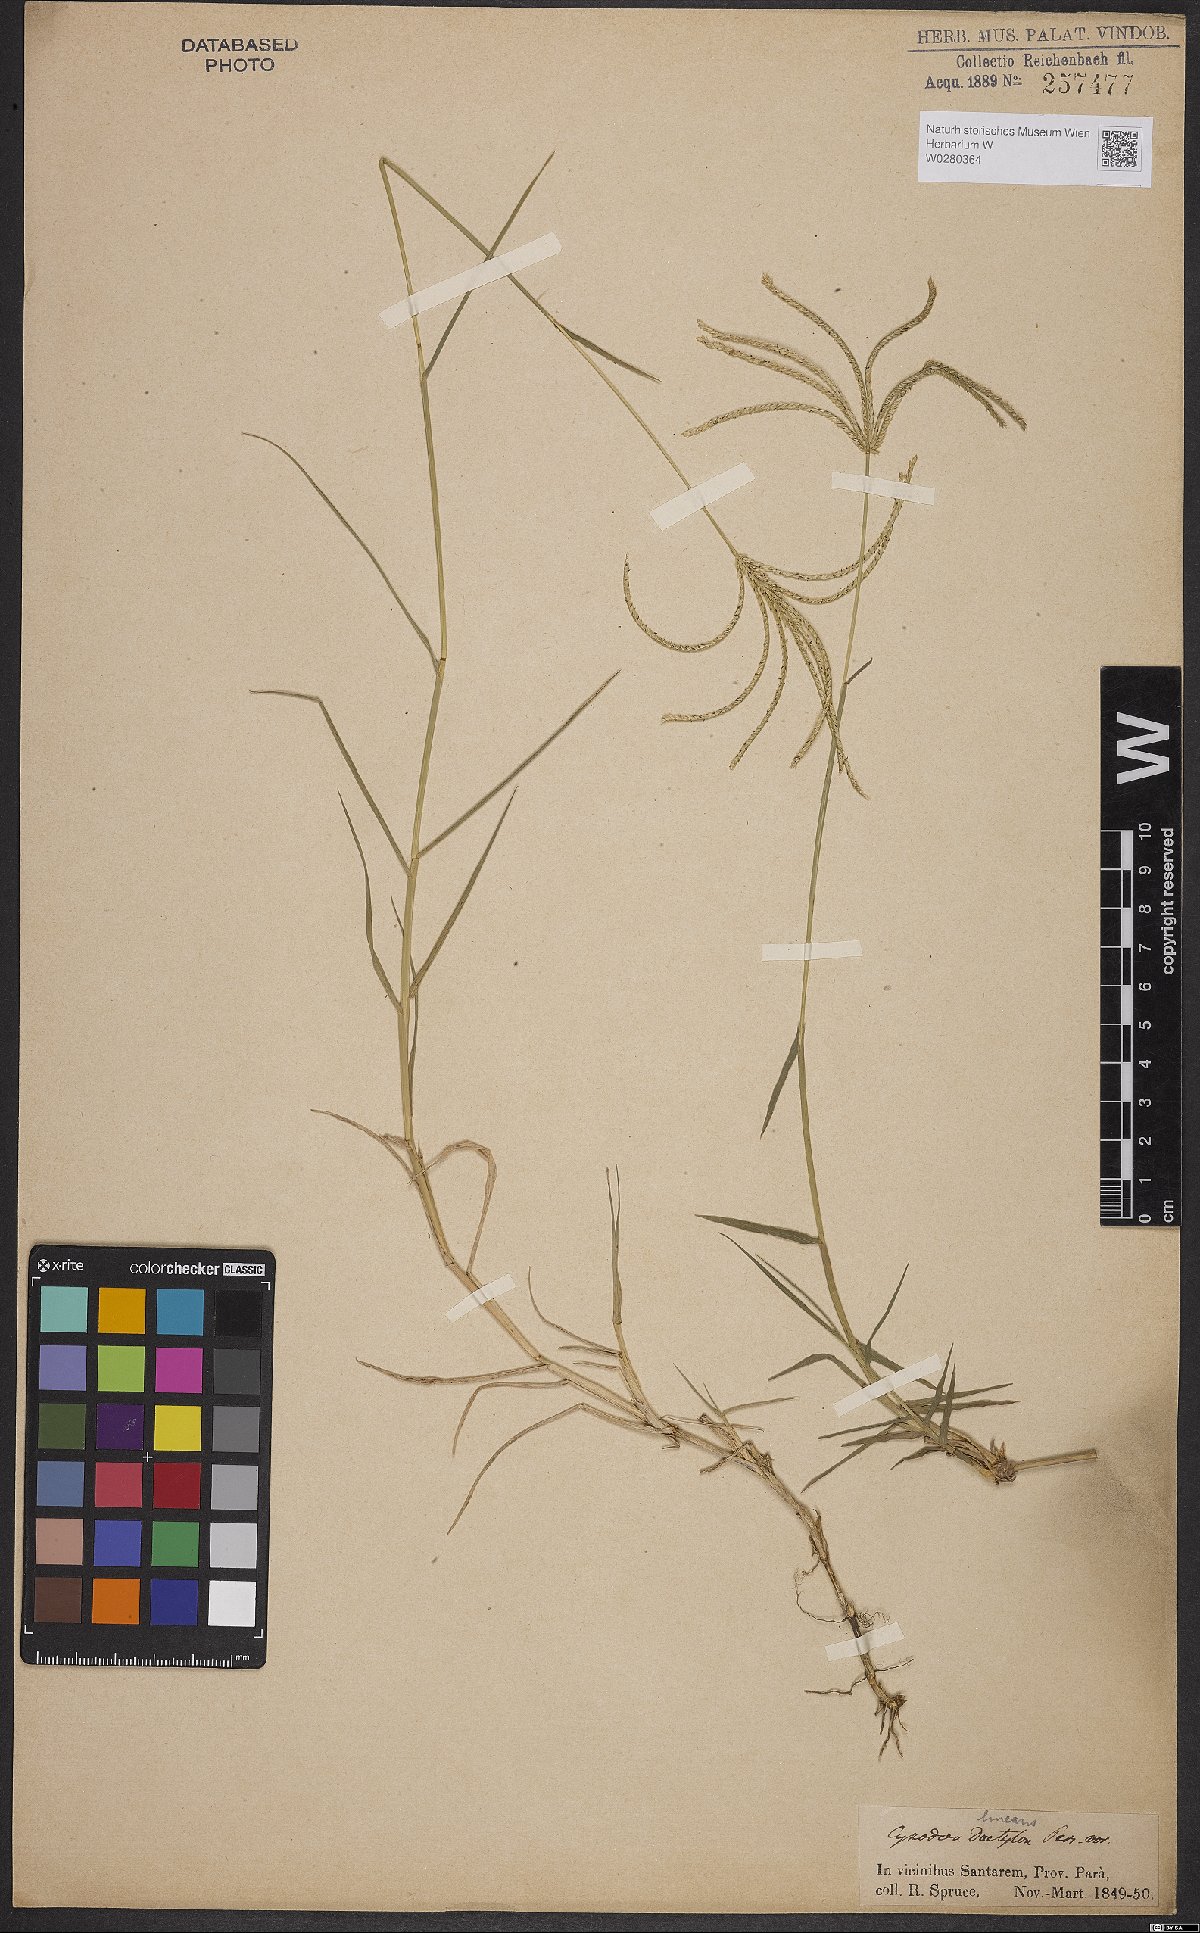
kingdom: Plantae
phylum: Tracheophyta
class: Liliopsida
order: Poales
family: Poaceae
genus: Cynodon
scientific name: Cynodon dactylon
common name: Bermuda grass
